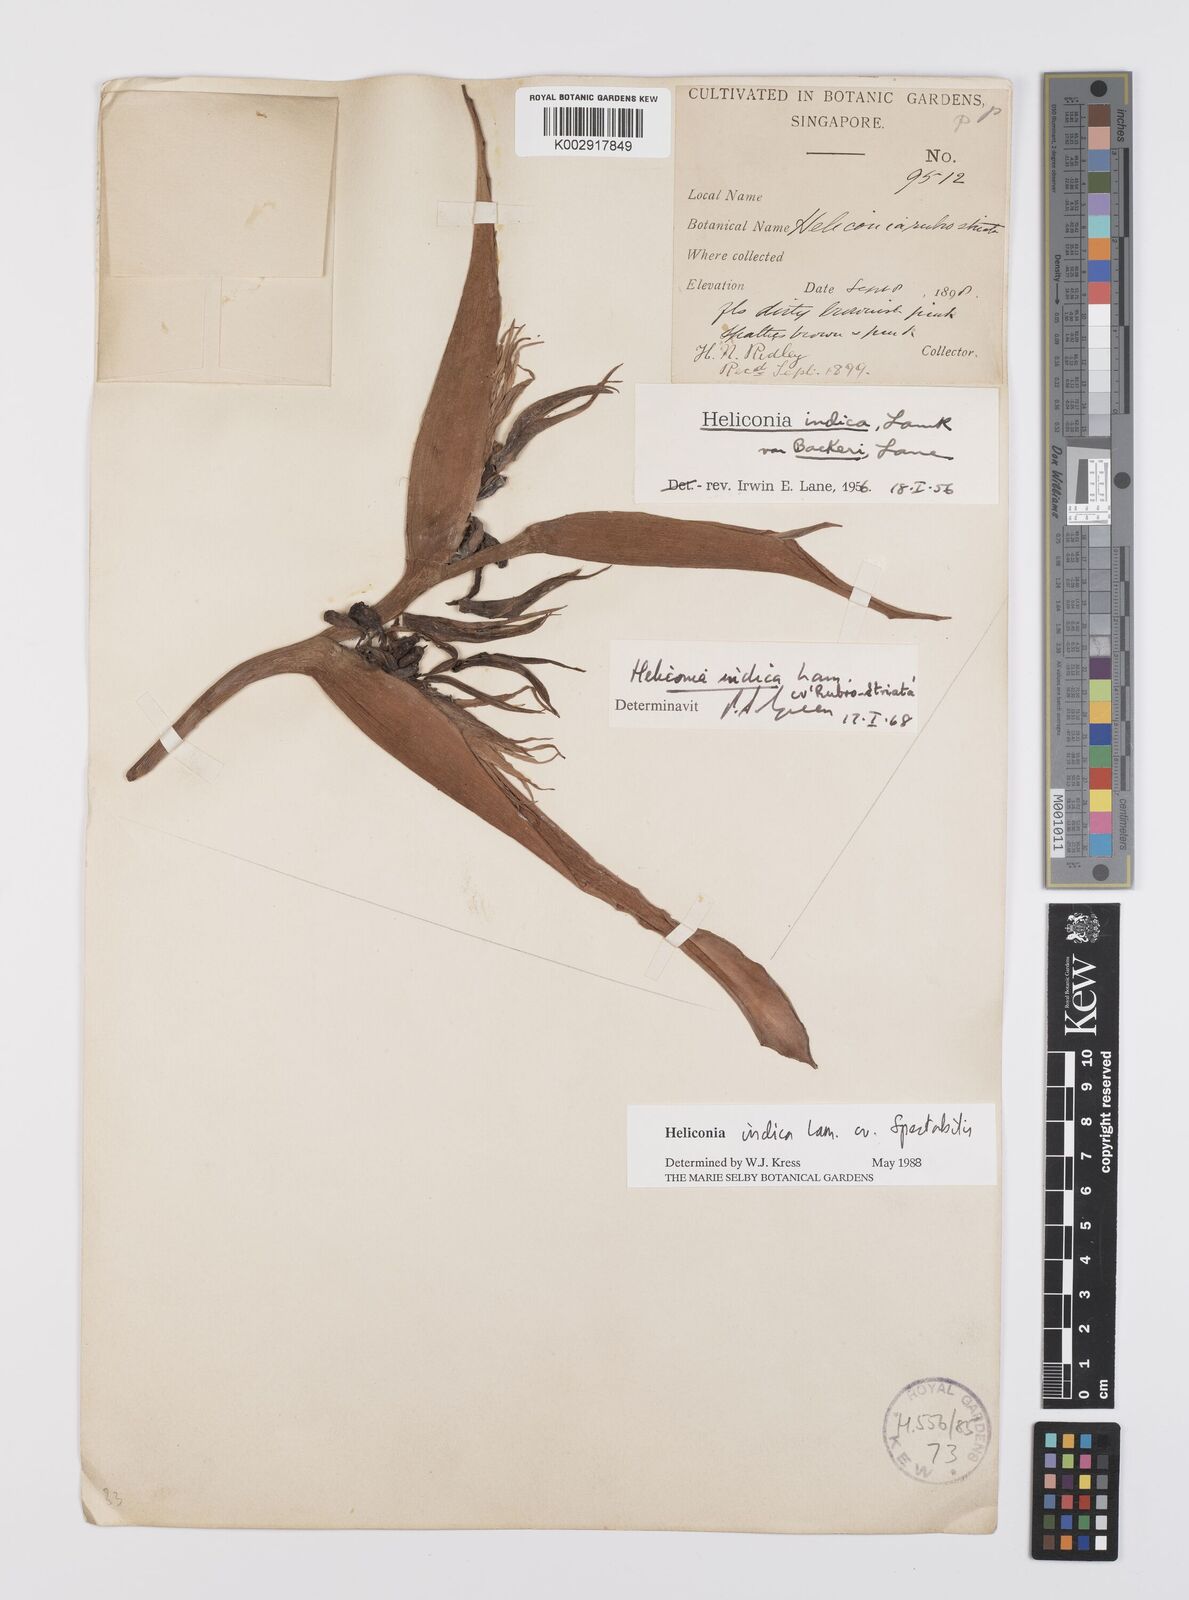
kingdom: Plantae
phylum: Tracheophyta
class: Liliopsida
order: Zingiberales
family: Heliconiaceae
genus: Heliconia
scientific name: Heliconia indica
